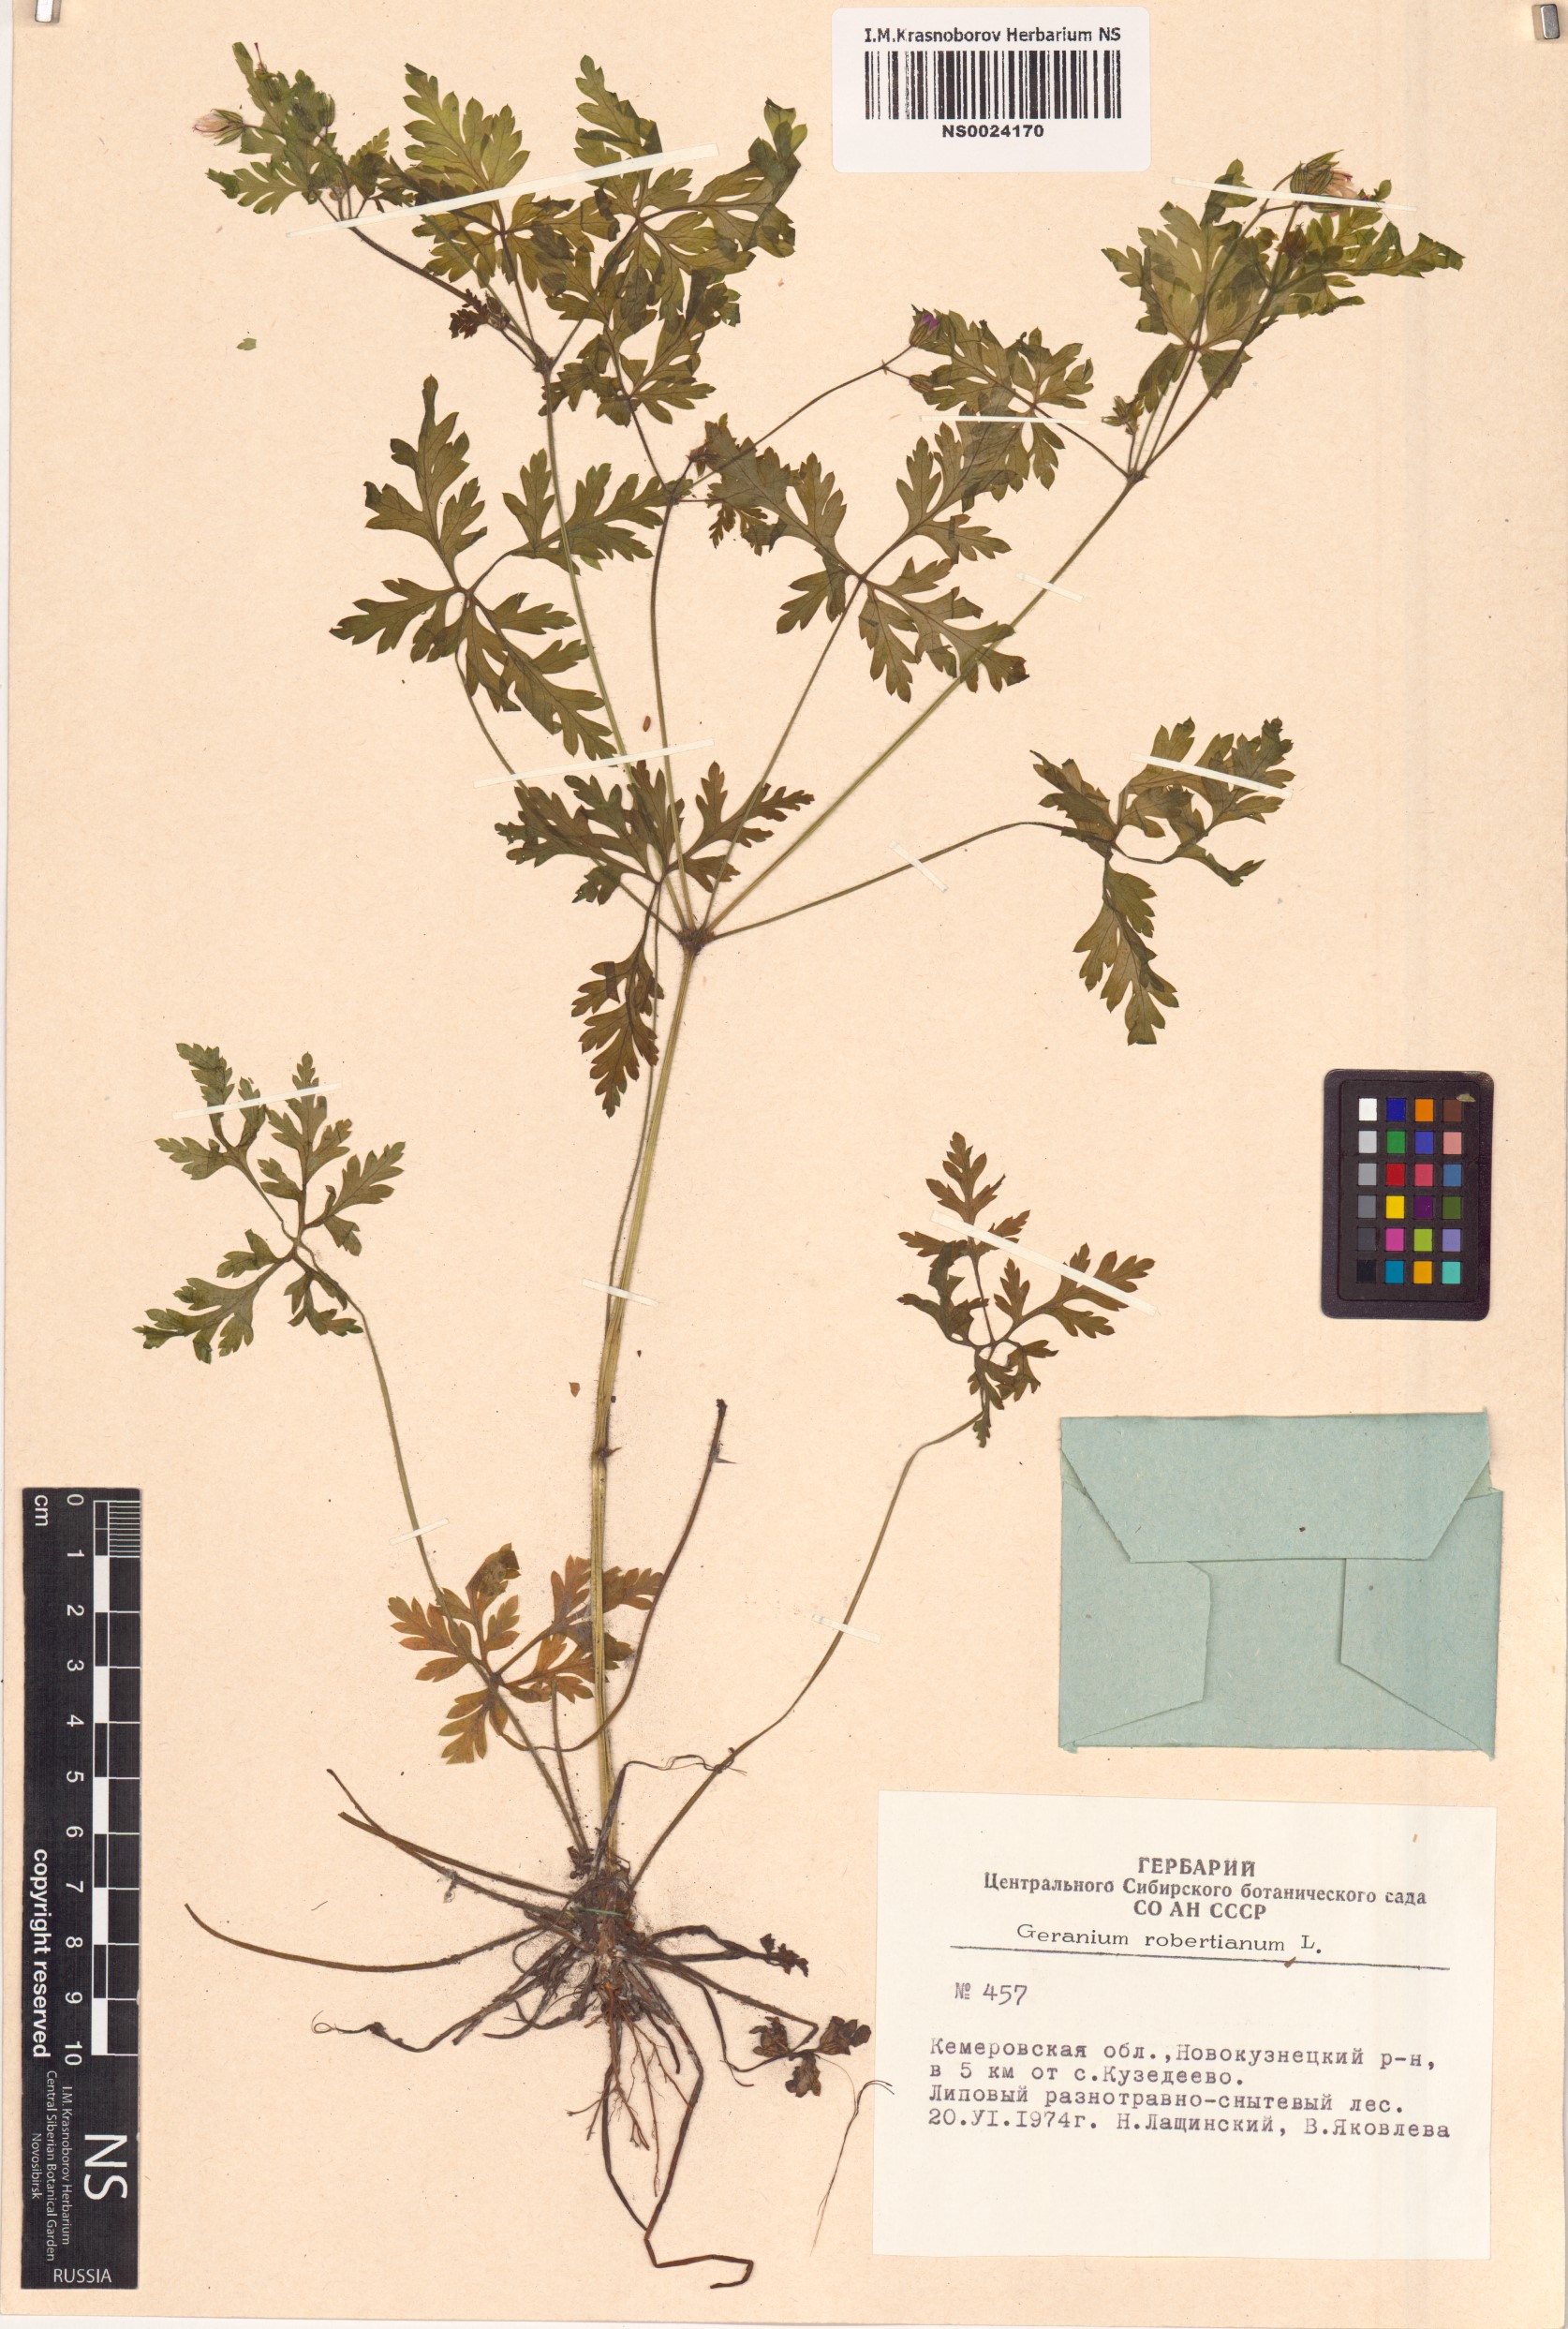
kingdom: Plantae
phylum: Tracheophyta
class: Magnoliopsida
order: Geraniales
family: Geraniaceae
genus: Geranium
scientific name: Geranium robertianum
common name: Herb-robert
